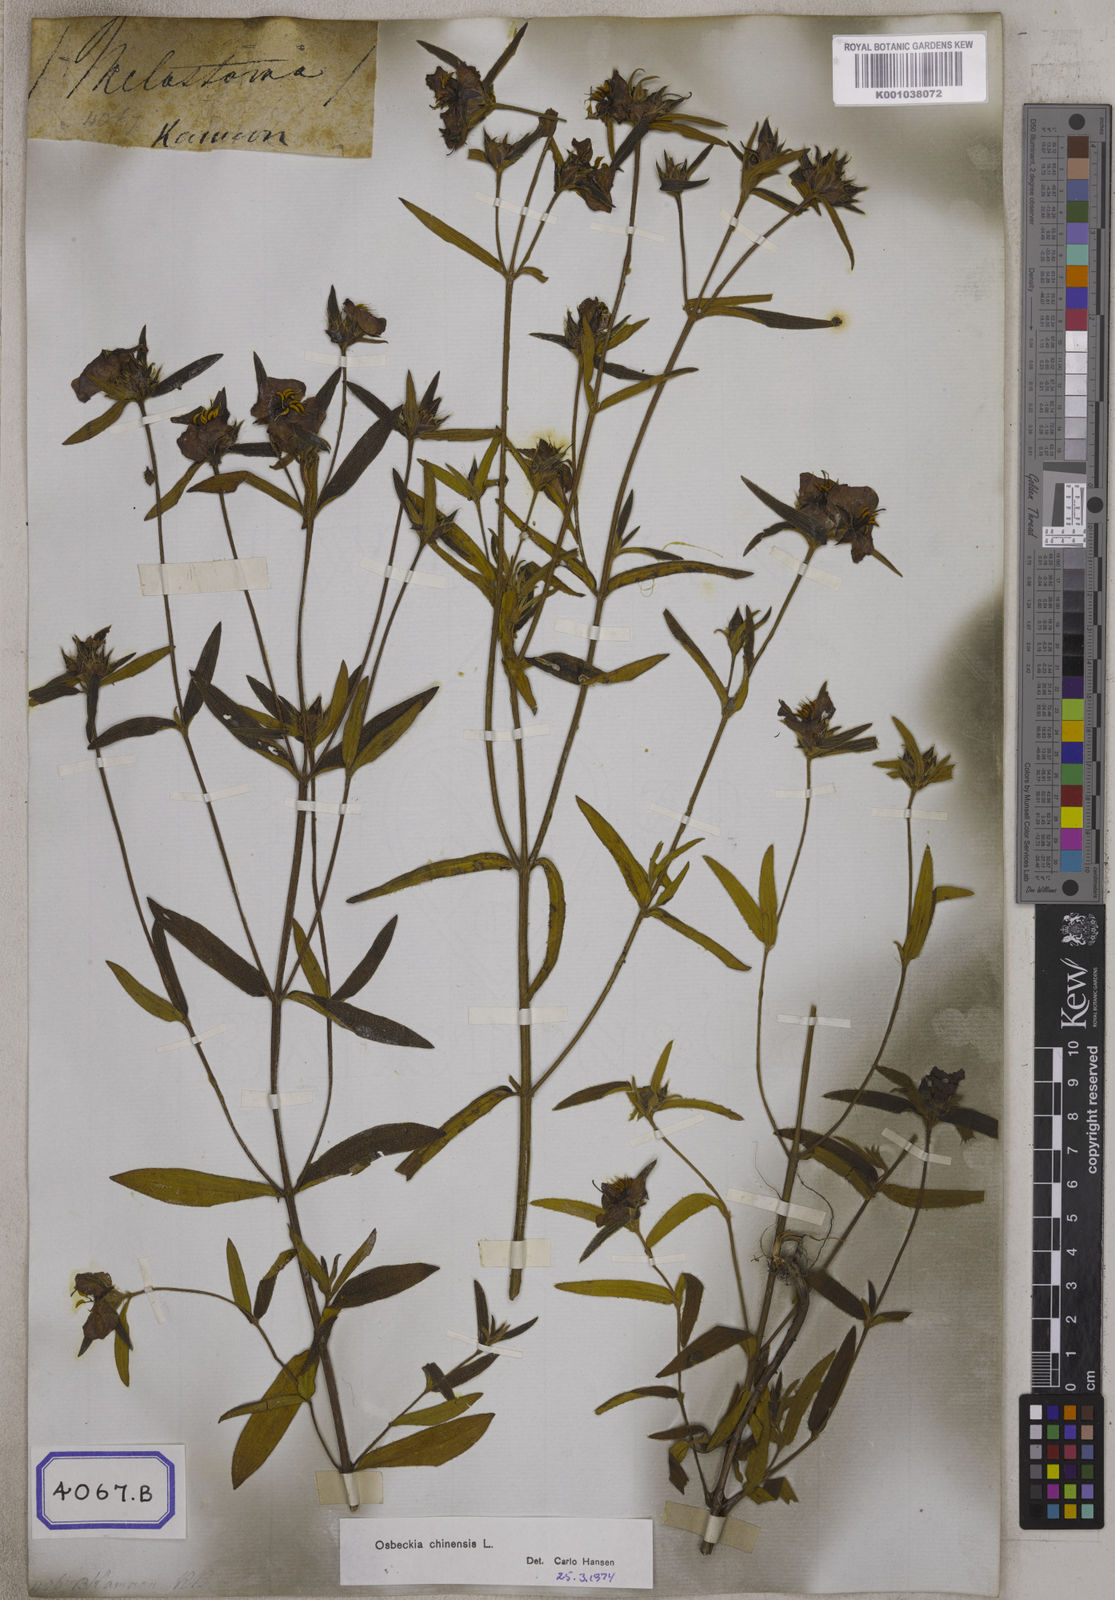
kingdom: Plantae
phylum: Tracheophyta
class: Magnoliopsida
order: Myrtales
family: Melastomataceae
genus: Osbeckia
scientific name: Osbeckia chinensis
